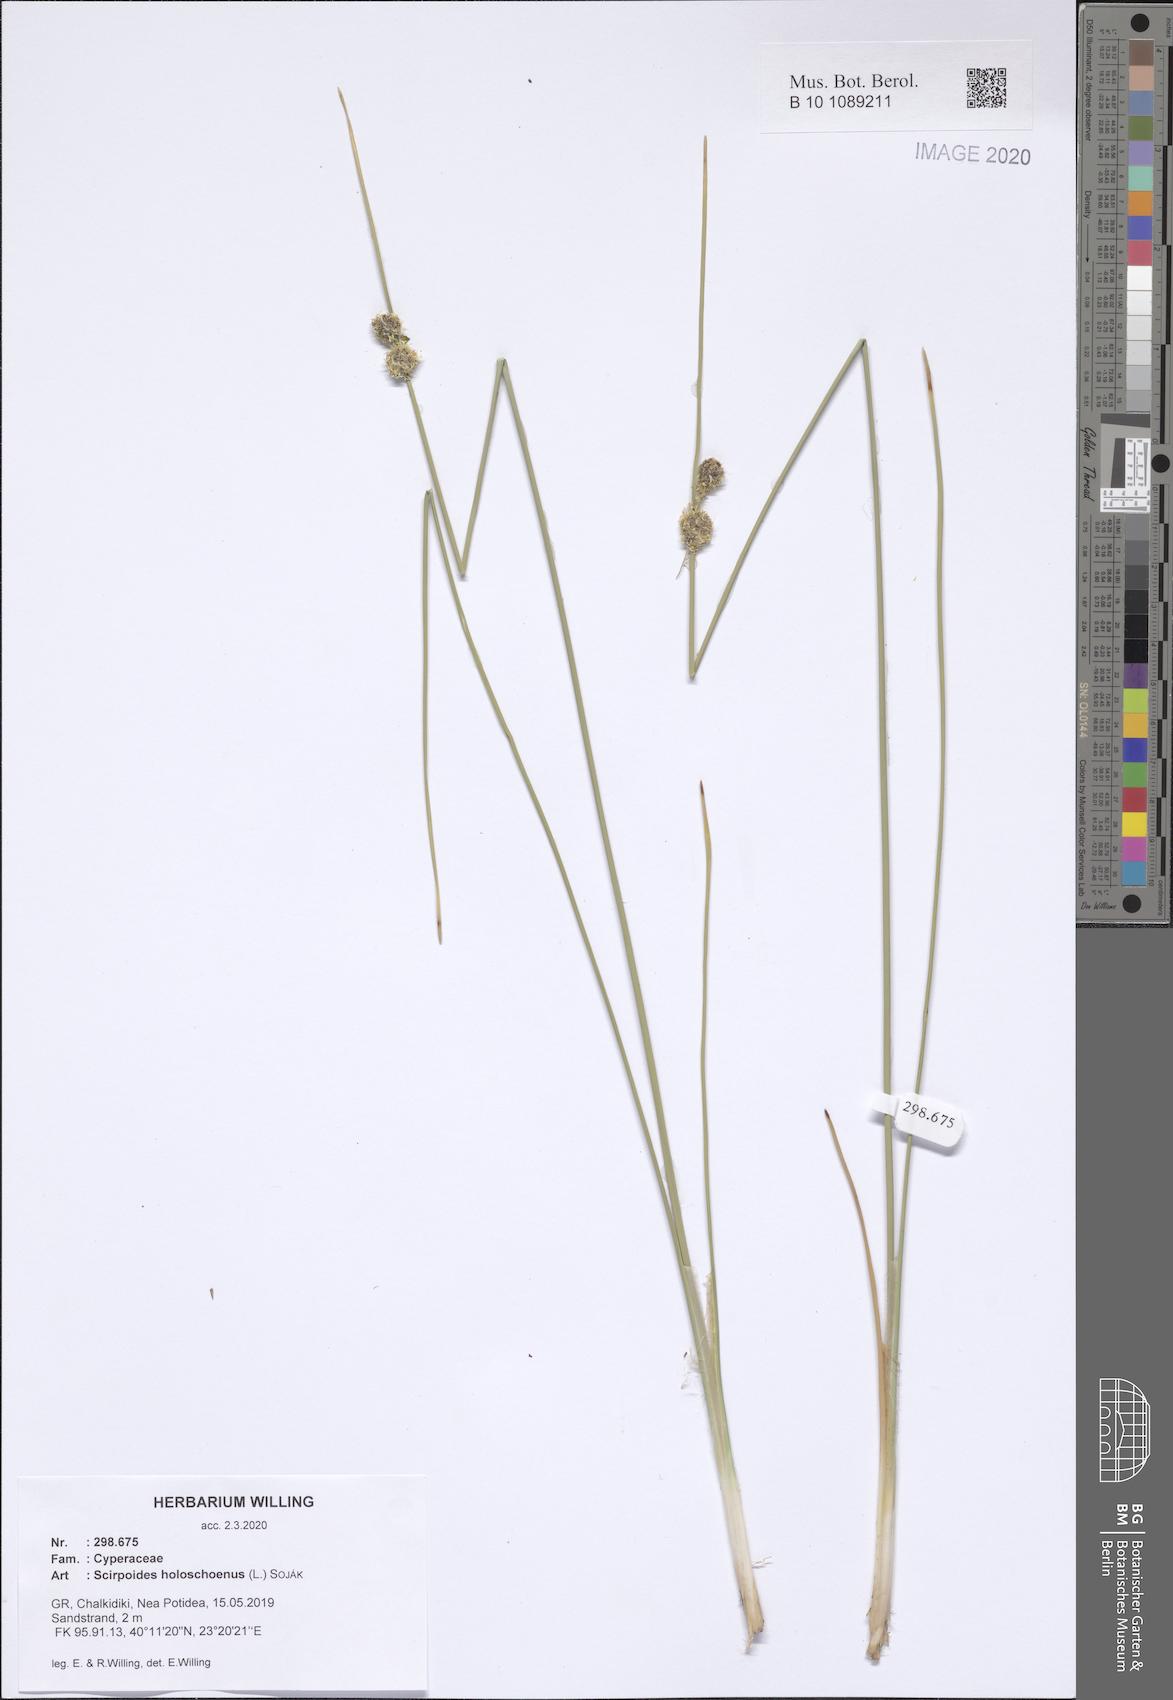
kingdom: Plantae
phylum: Tracheophyta
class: Liliopsida
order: Poales
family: Cyperaceae
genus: Scirpoides
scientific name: Scirpoides holoschoenus
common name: Round-headed club-rush
